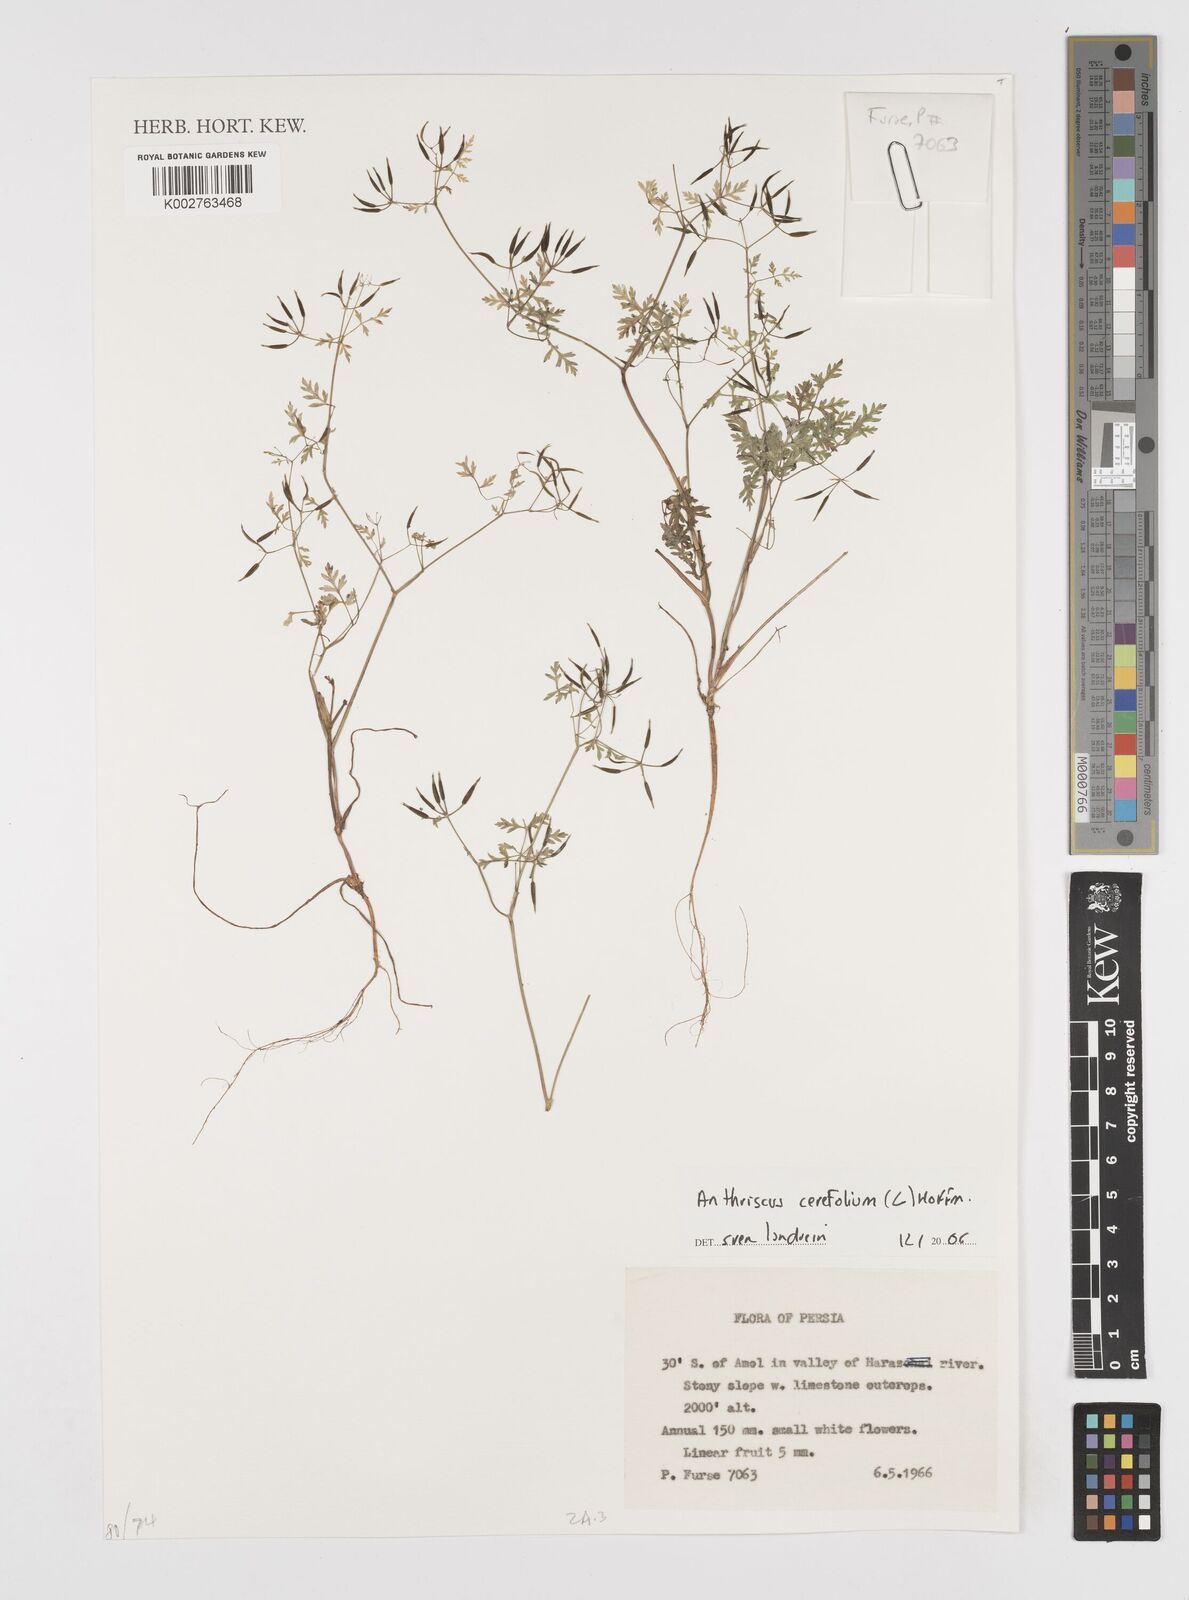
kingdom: Plantae
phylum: Tracheophyta
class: Magnoliopsida
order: Apiales
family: Apiaceae
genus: Anthriscus
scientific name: Anthriscus cerefolium
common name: Garden chervil
